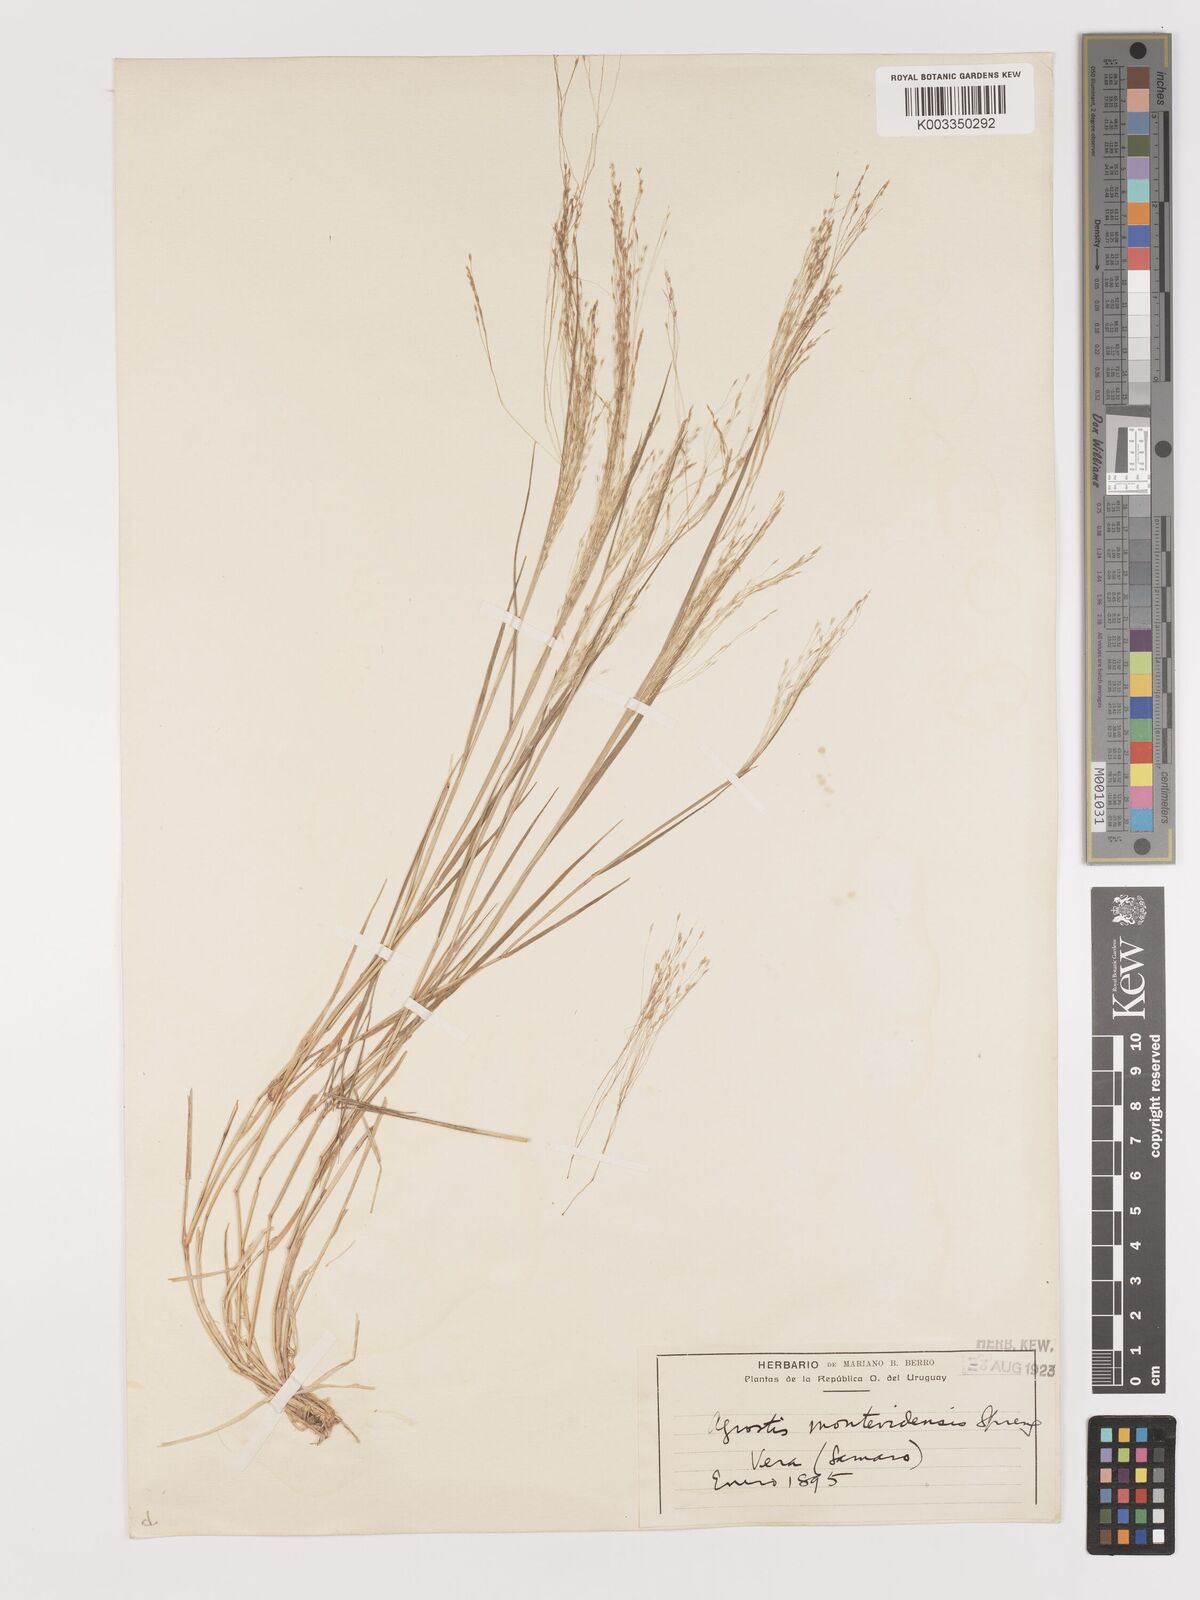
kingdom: Plantae
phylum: Tracheophyta
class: Liliopsida
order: Poales
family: Poaceae
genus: Agrostis
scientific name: Agrostis
